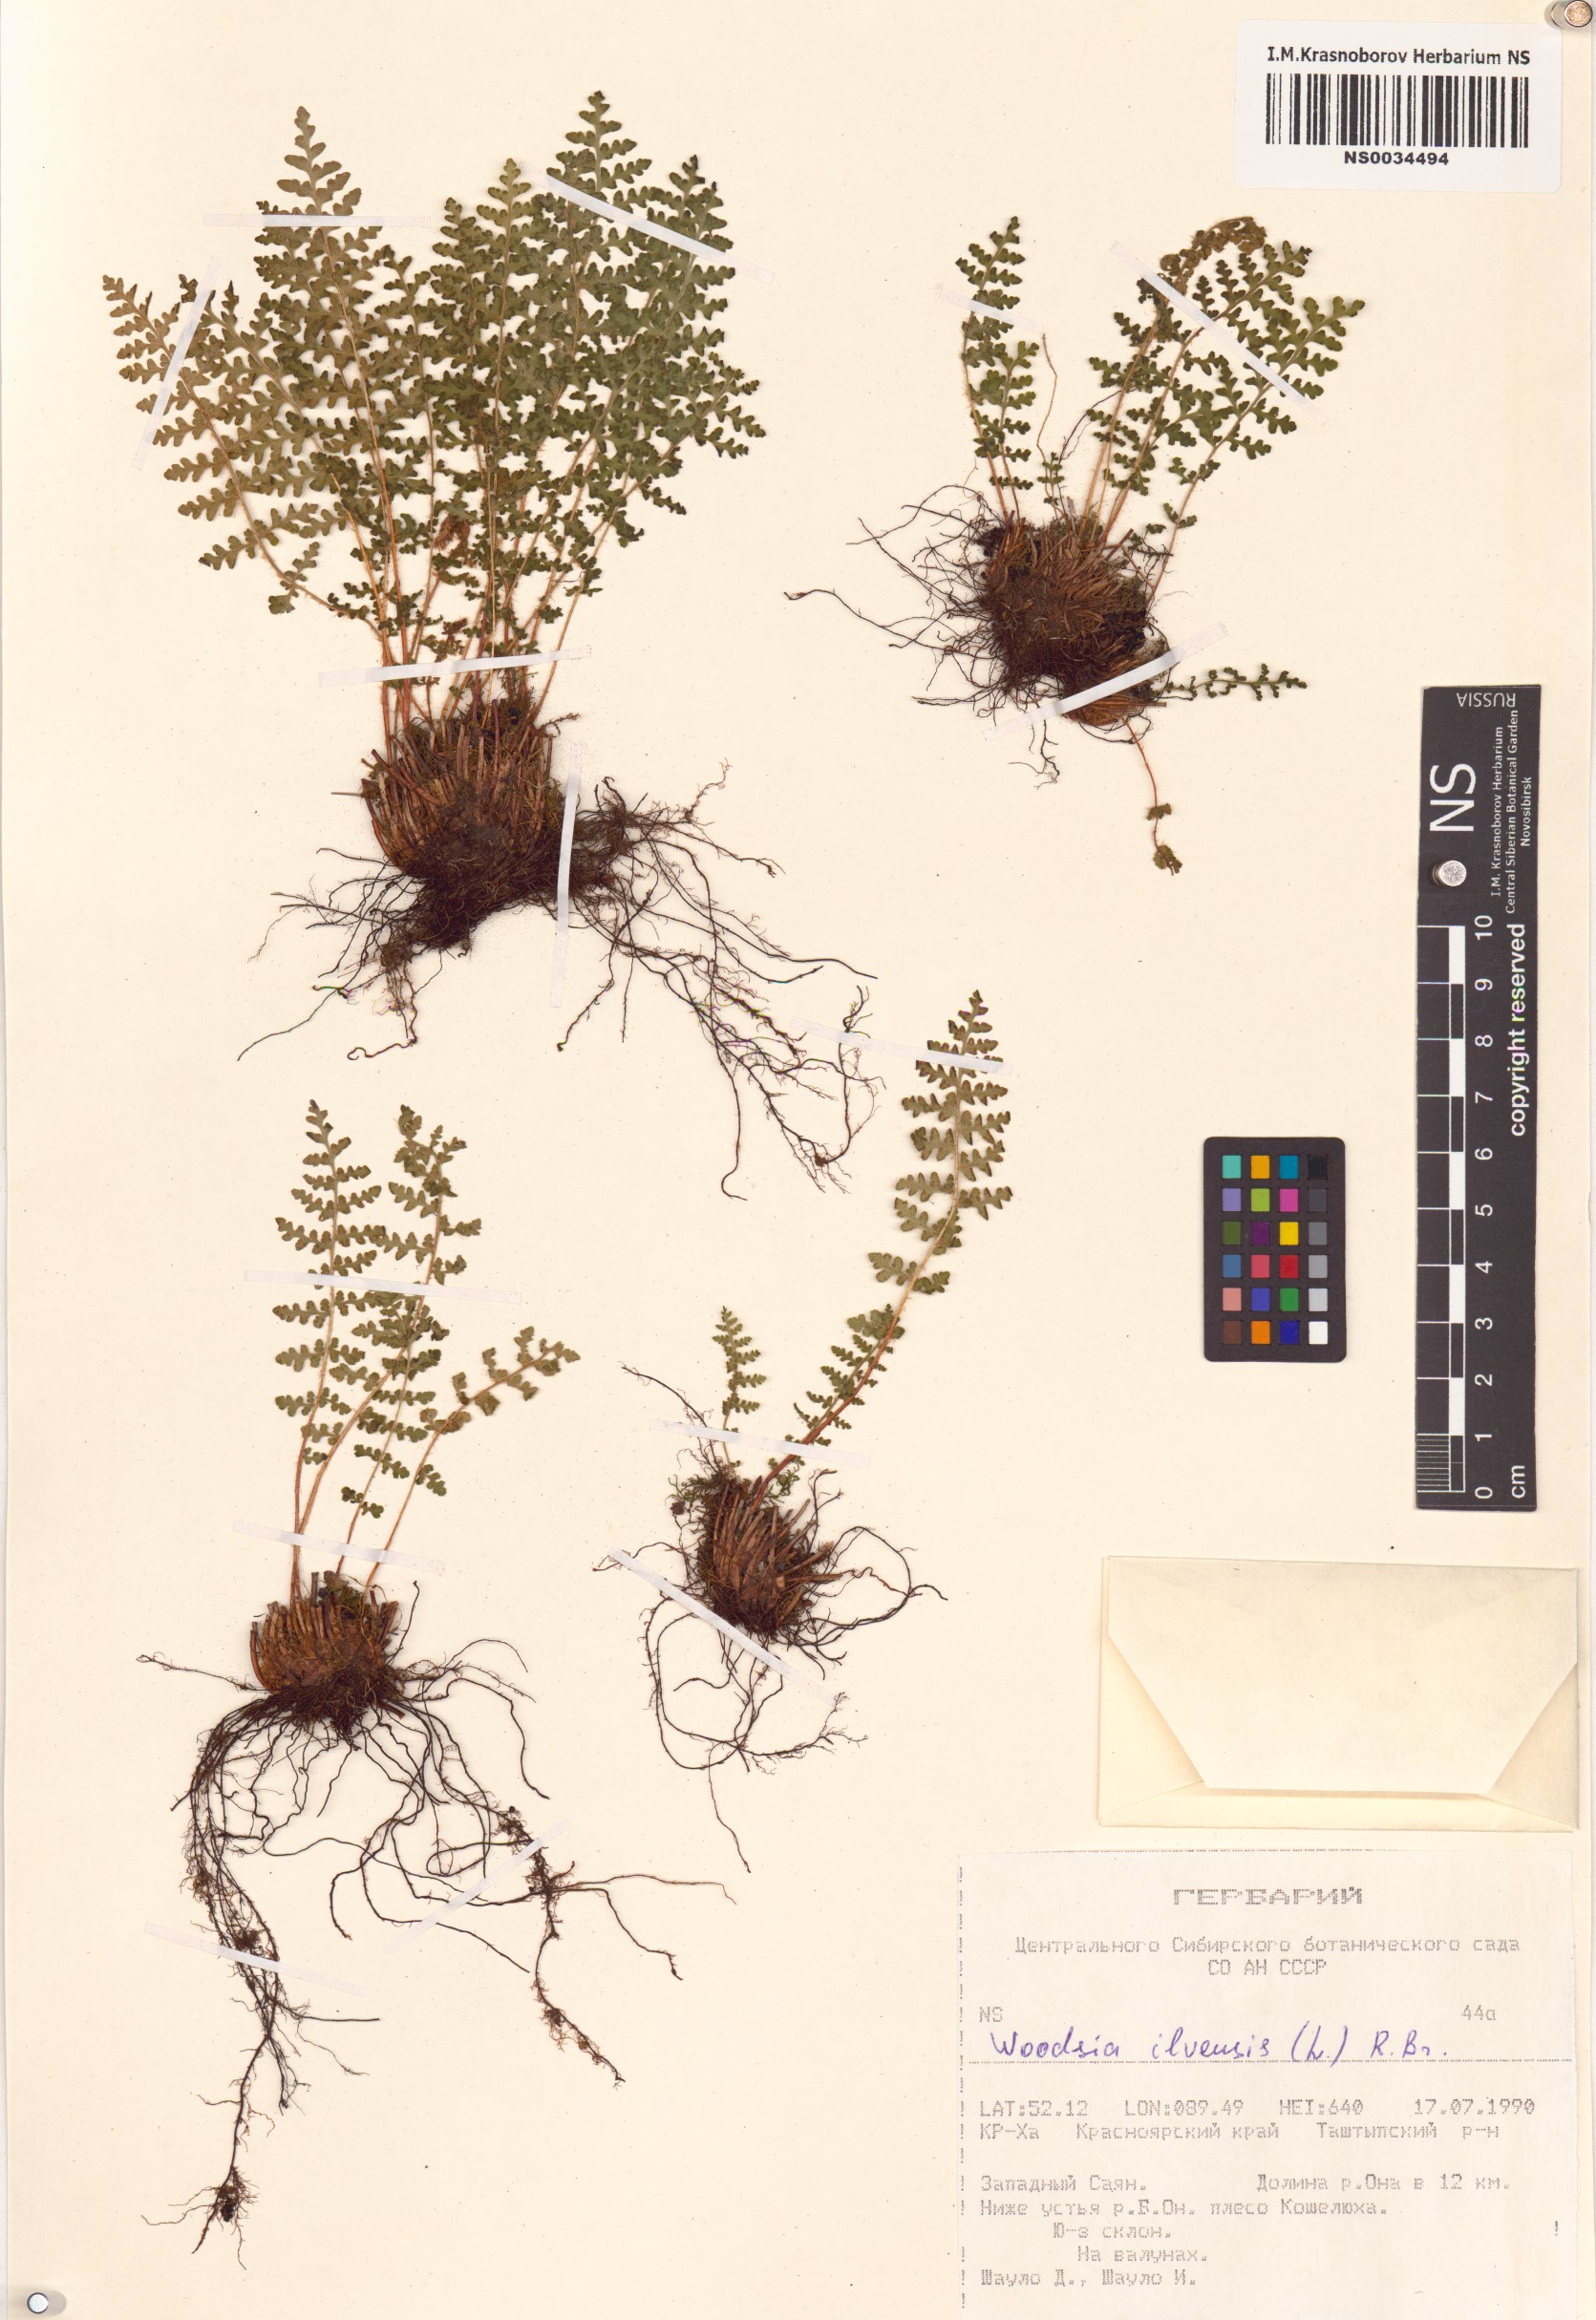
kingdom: Plantae
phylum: Tracheophyta
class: Polypodiopsida
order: Polypodiales
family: Woodsiaceae
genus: Woodsia
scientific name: Woodsia ilvensis
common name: Fragrant woodsia
